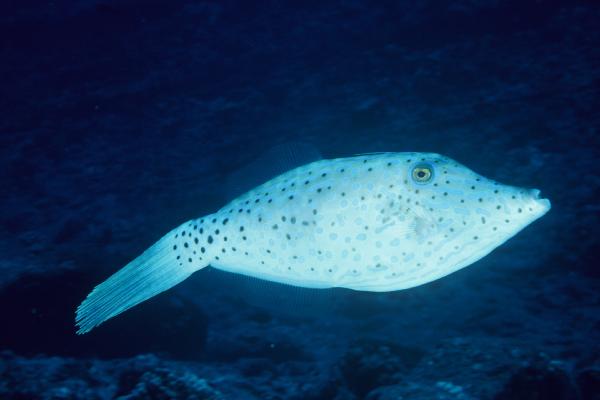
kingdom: Animalia
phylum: Chordata
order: Tetraodontiformes
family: Monacanthidae
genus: Aluterus
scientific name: Aluterus scriptus
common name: Scribbled leatherjacket filefish
